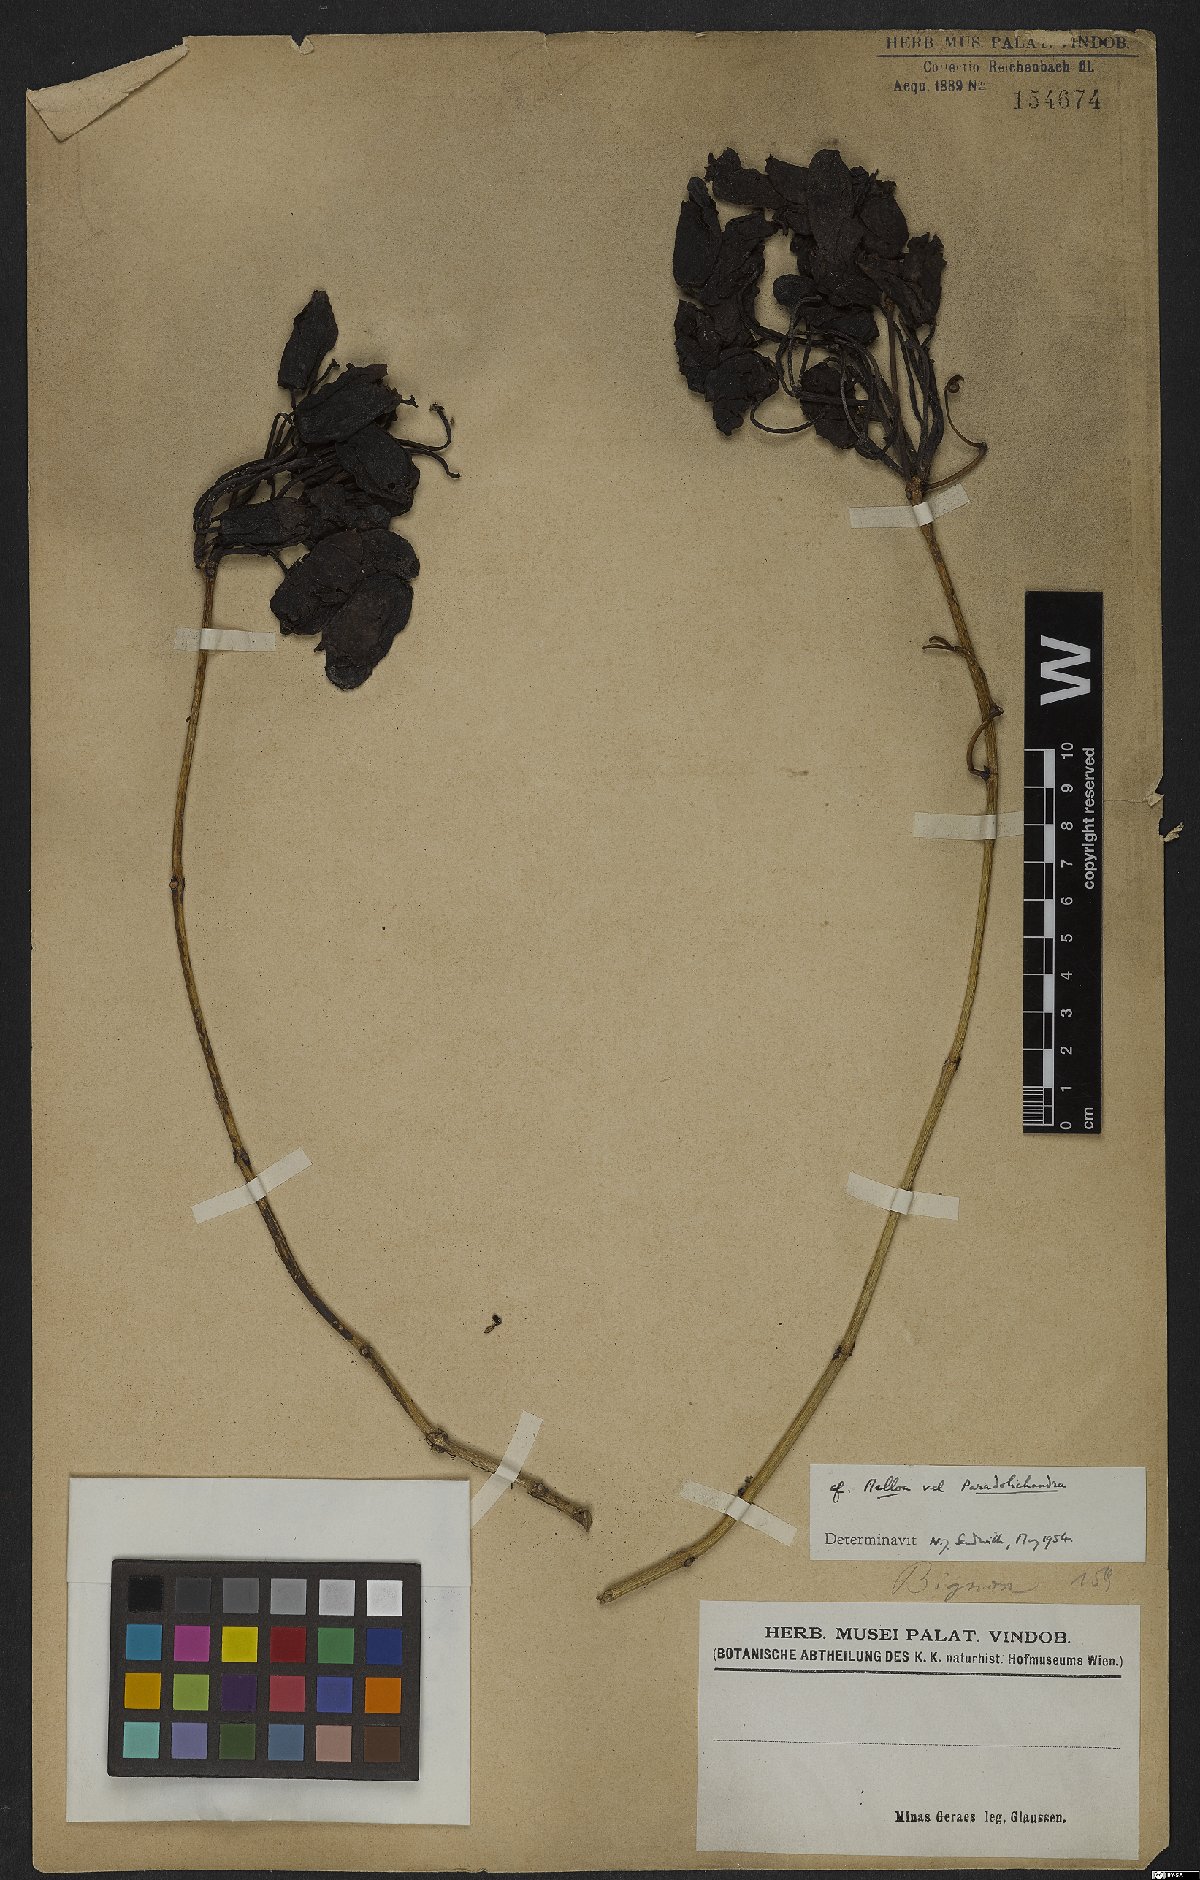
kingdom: Plantae
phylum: Tracheophyta
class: Magnoliopsida
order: Lamiales
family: Bignoniaceae
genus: Dolichandra
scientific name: Dolichandra
